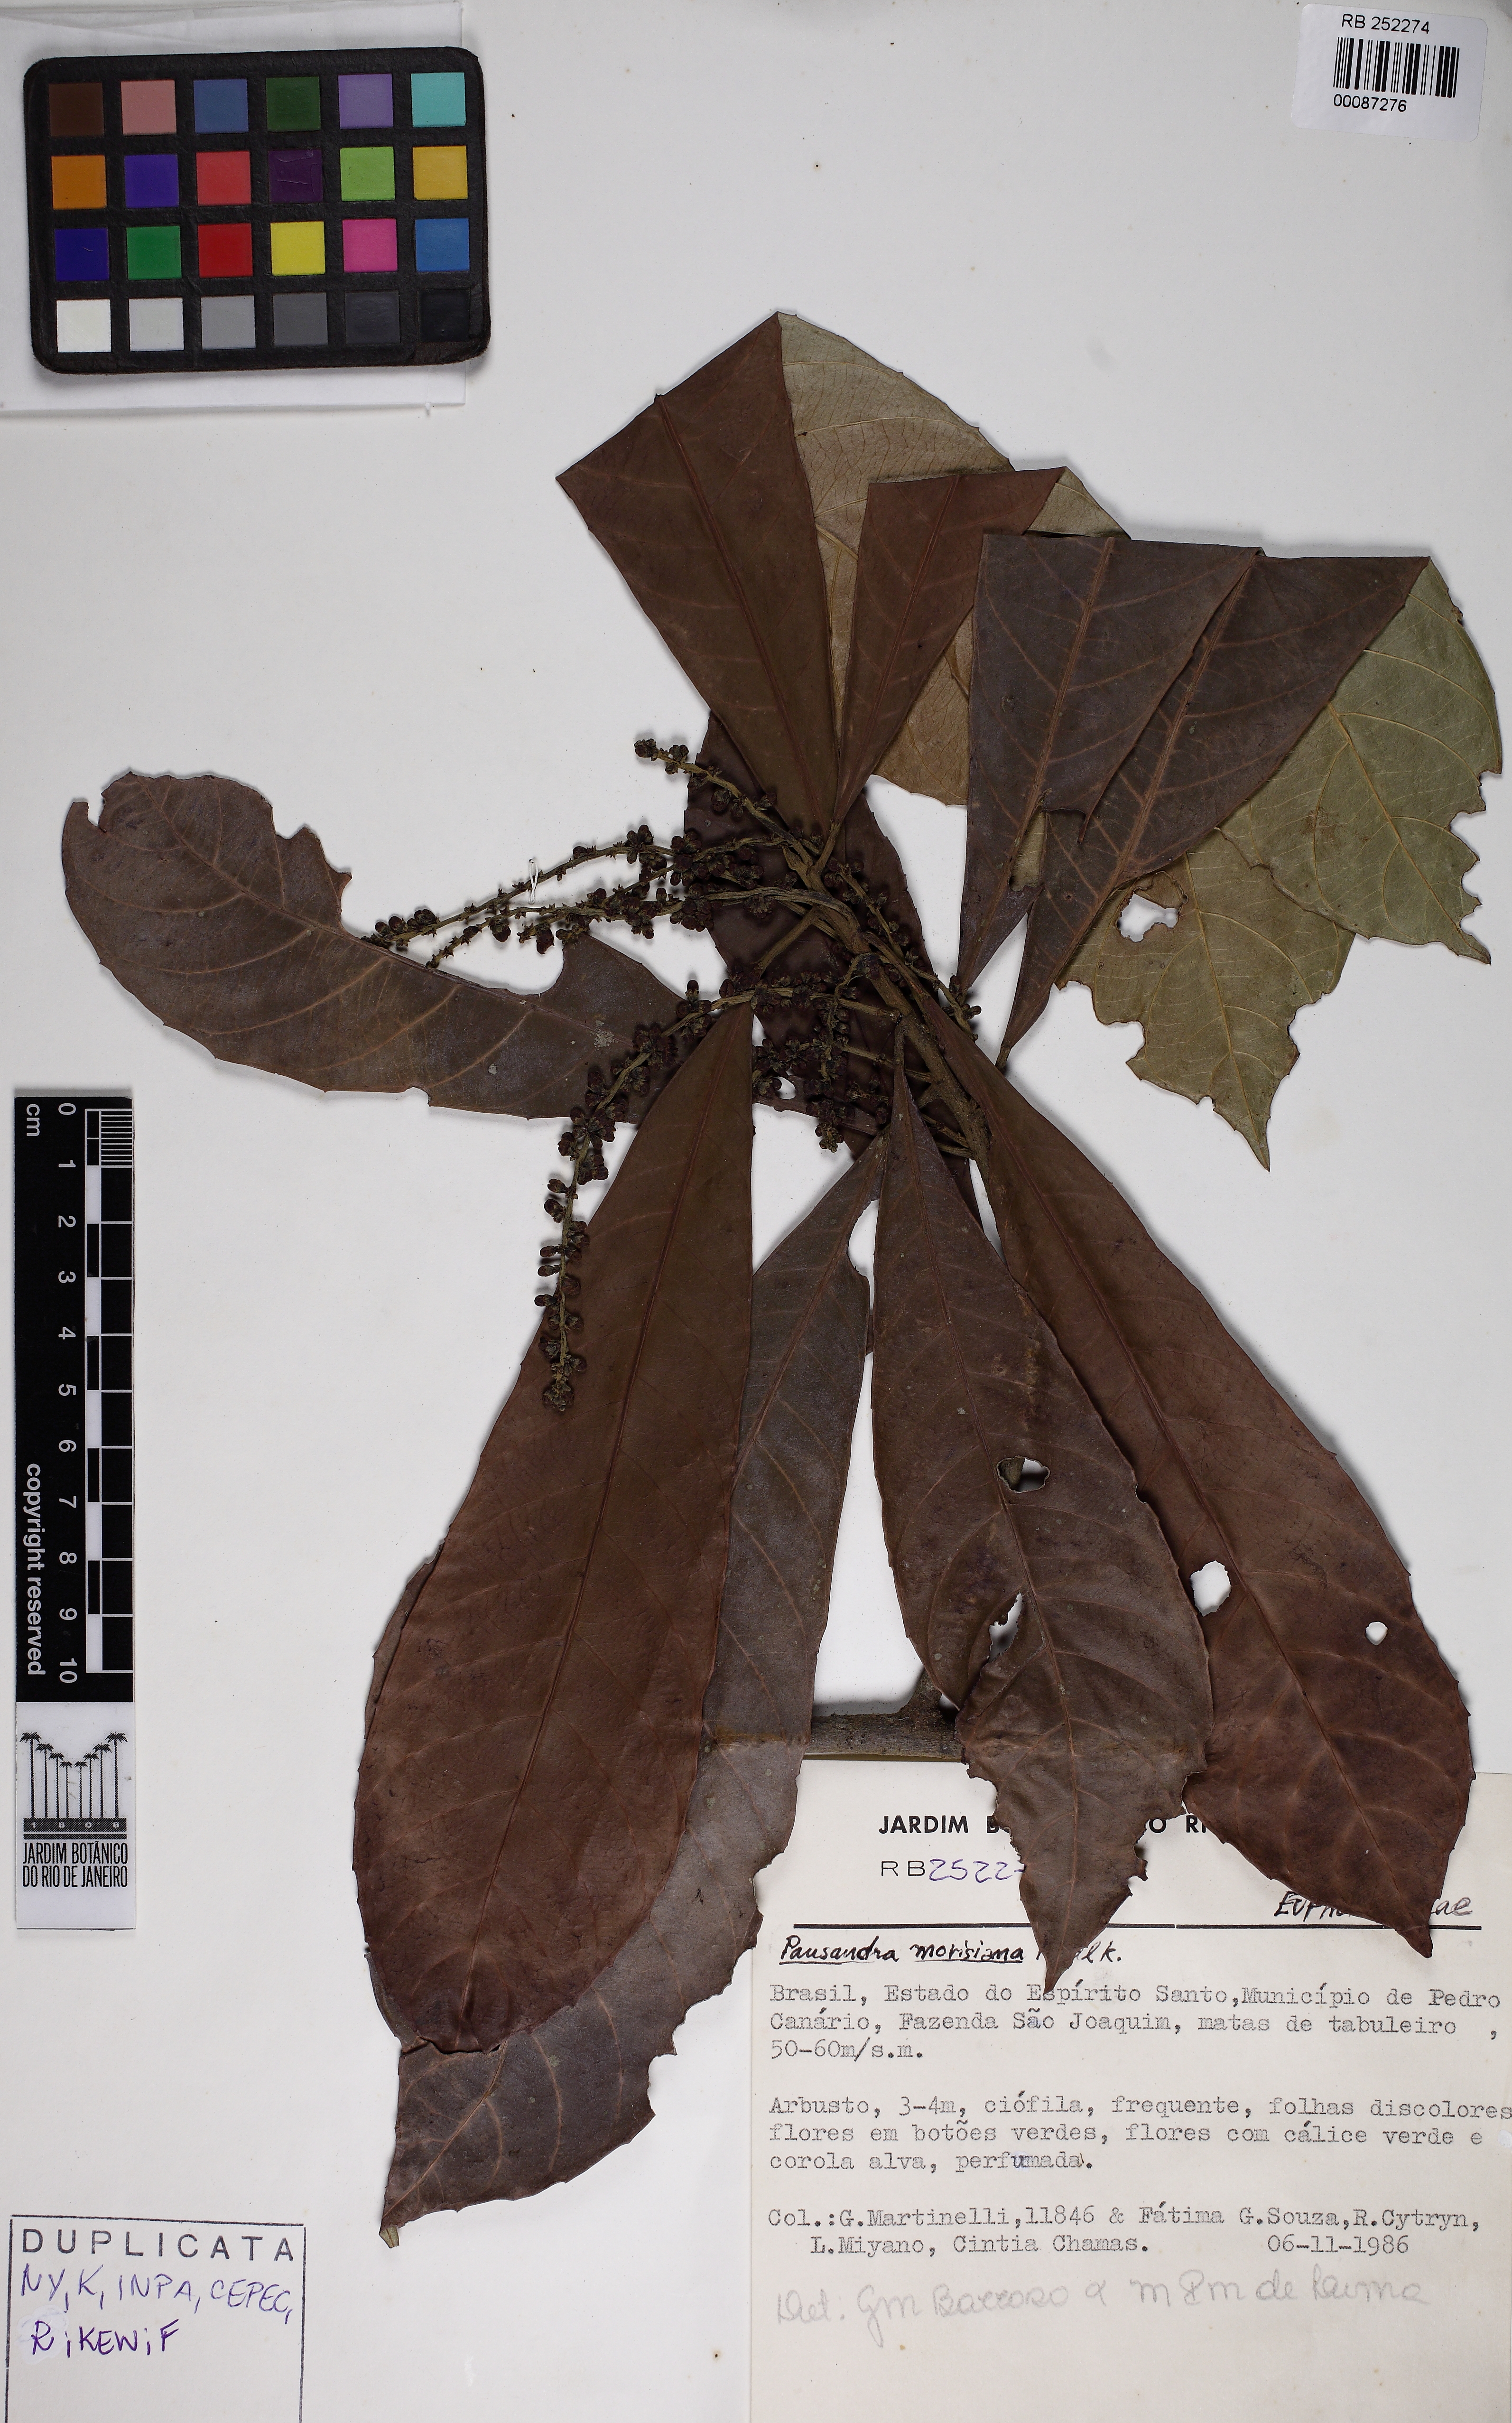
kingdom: Plantae
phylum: Tracheophyta
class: Magnoliopsida
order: Malpighiales
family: Euphorbiaceae
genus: Pausandra
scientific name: Pausandra morisiana
